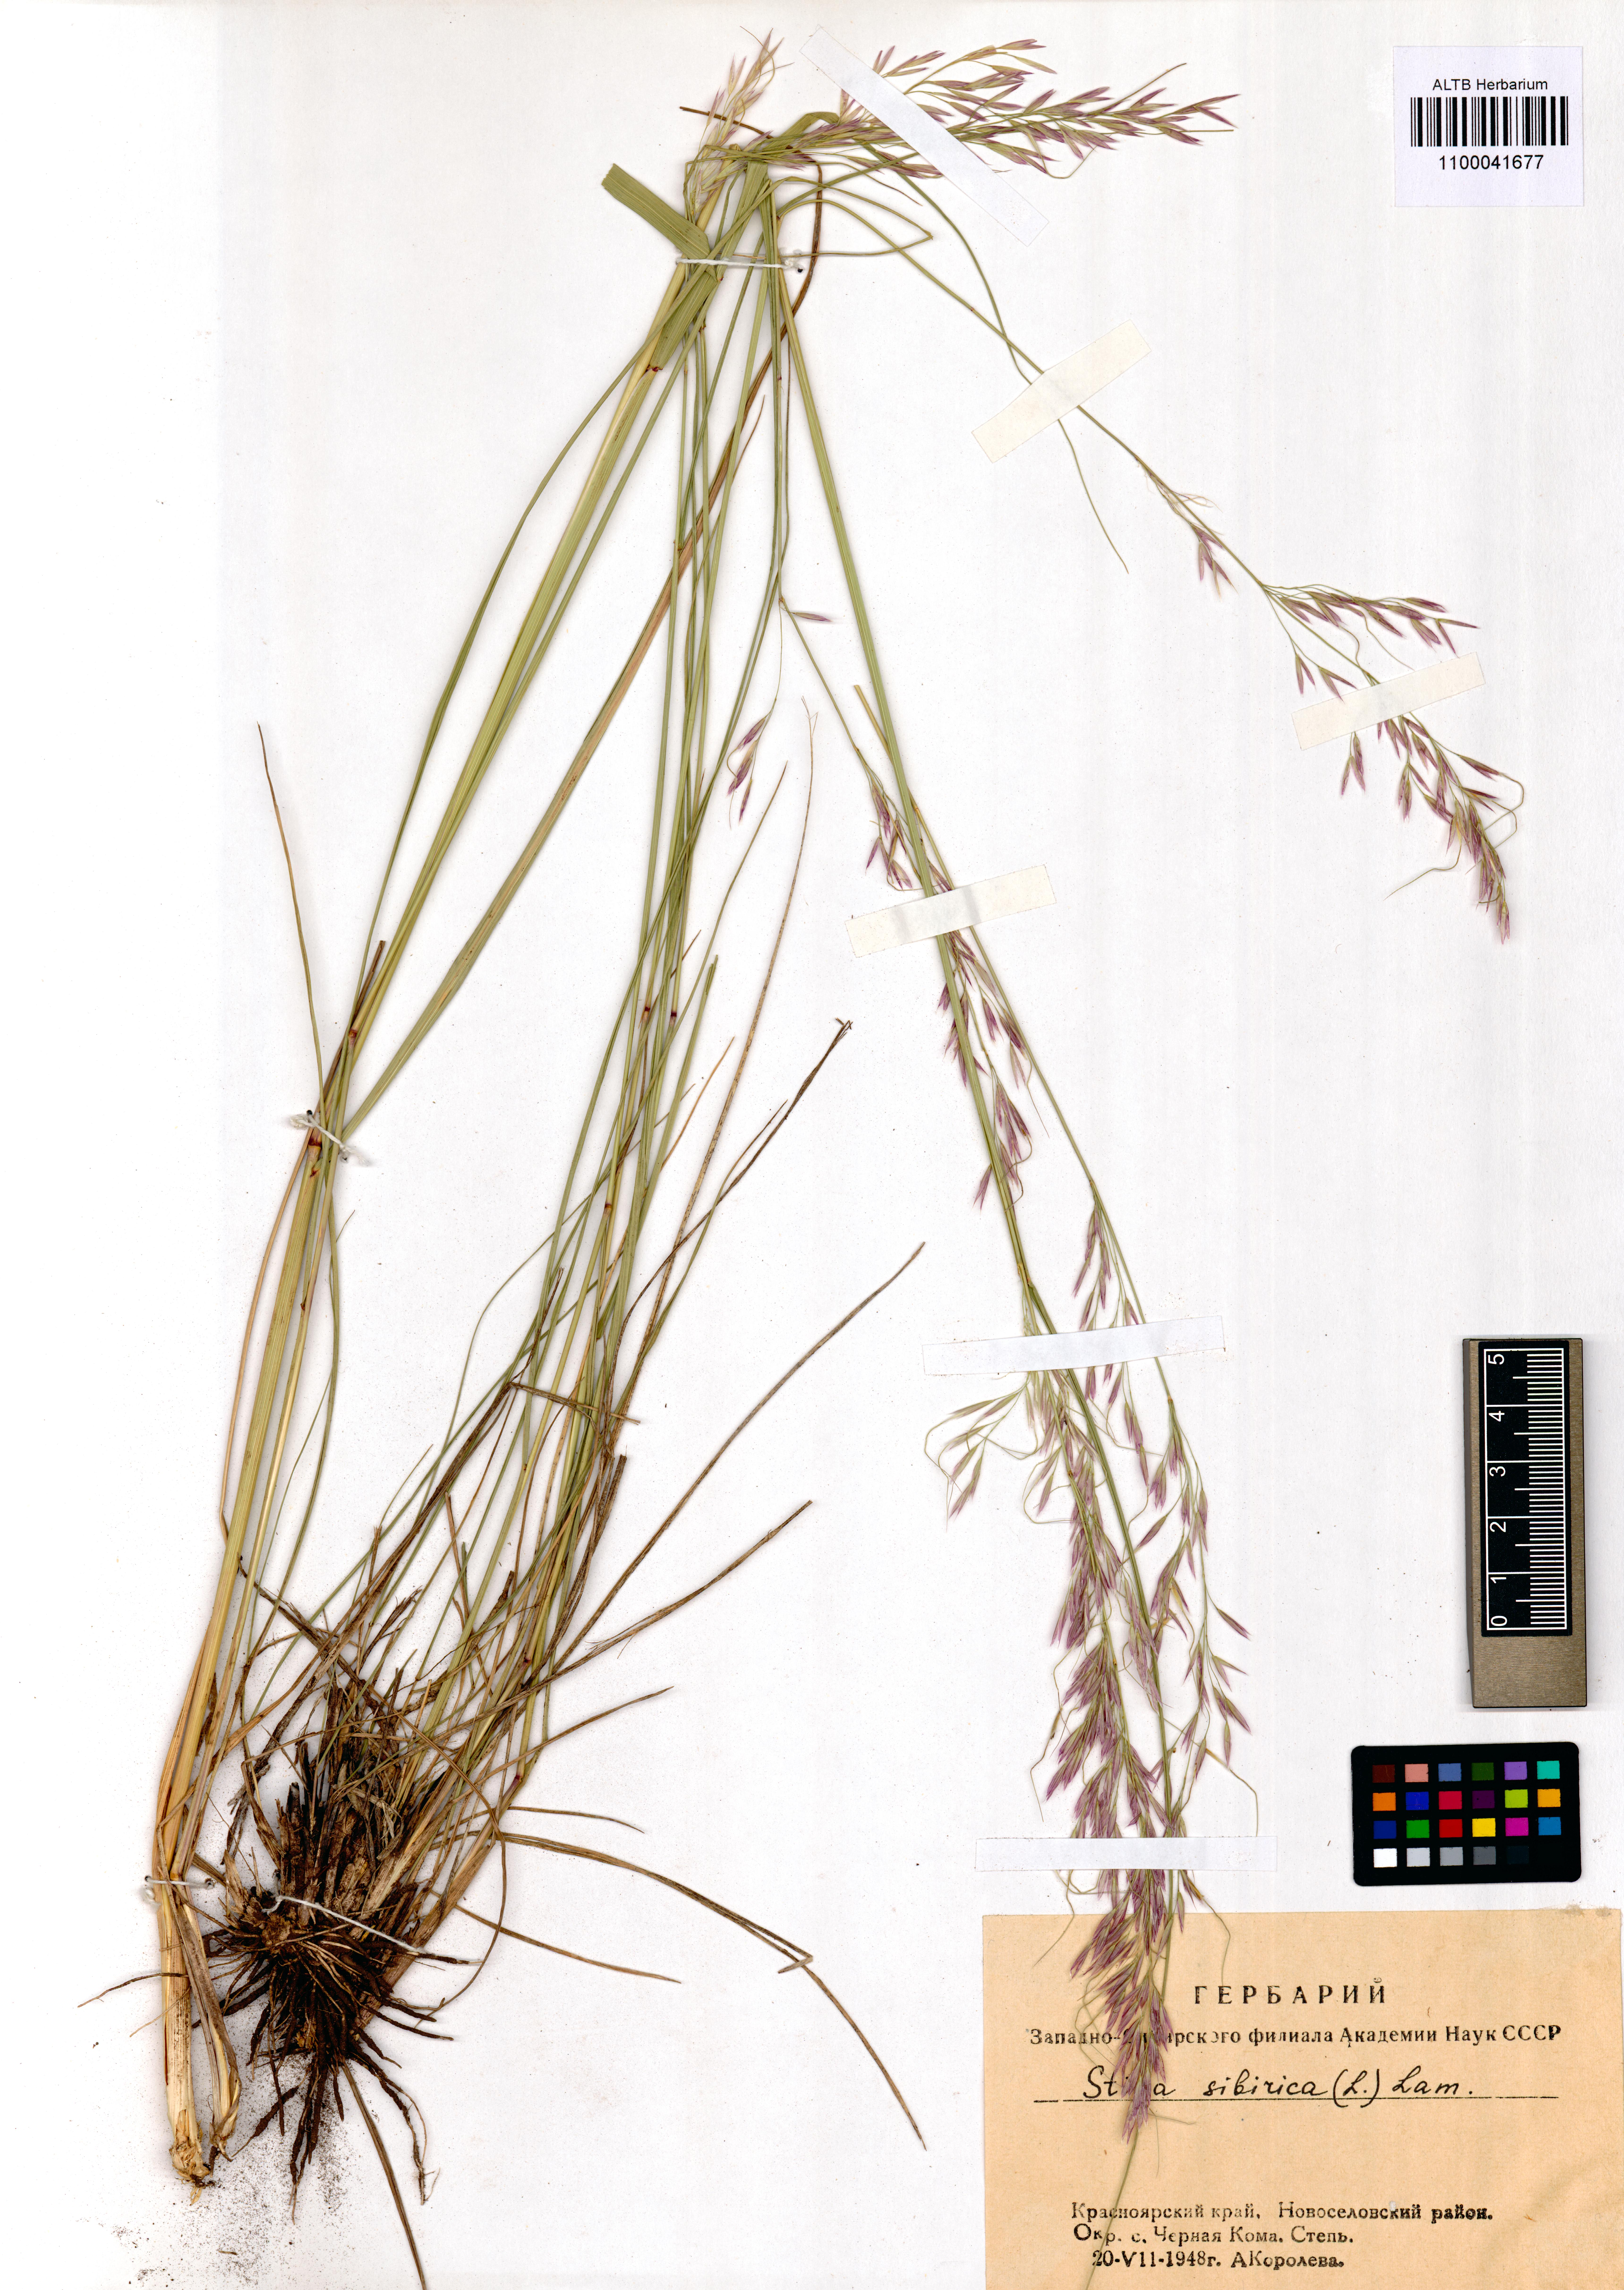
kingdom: Plantae
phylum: Tracheophyta
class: Liliopsida
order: Poales
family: Poaceae
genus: Achnatherum
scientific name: Achnatherum sibiricum
